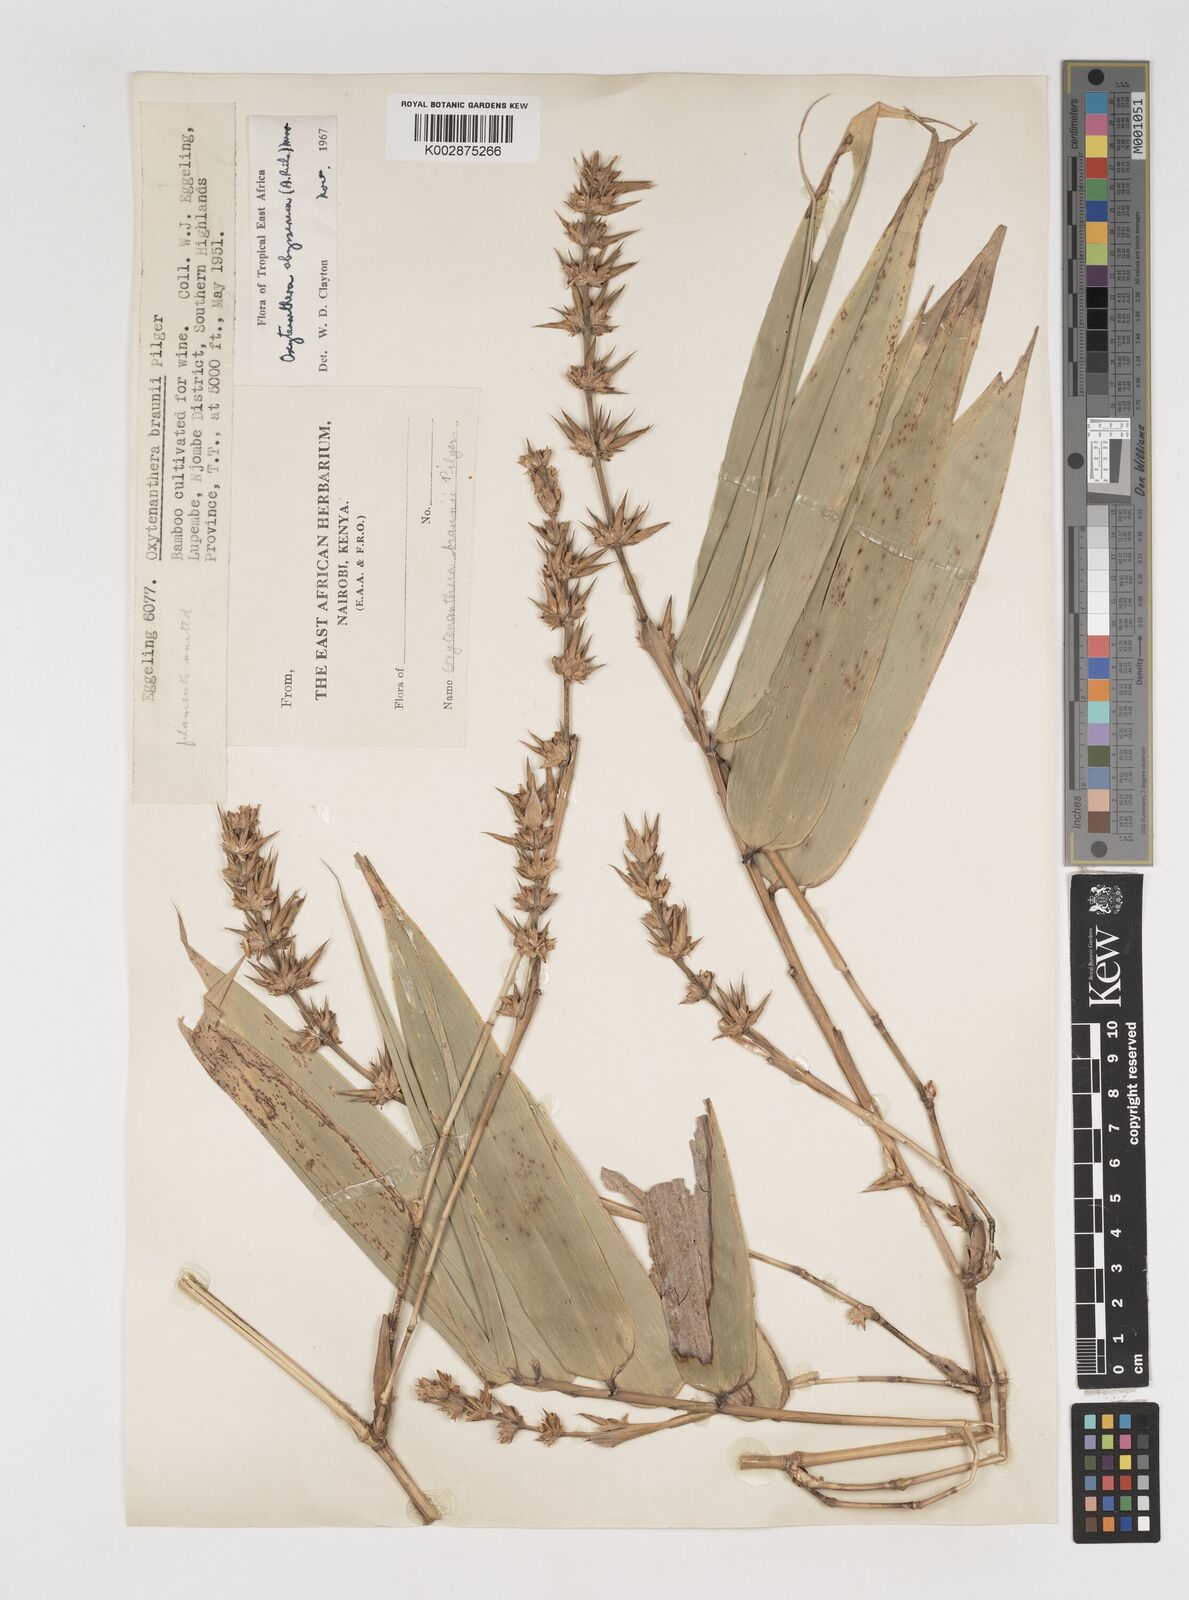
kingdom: Plantae
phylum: Tracheophyta
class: Liliopsida
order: Poales
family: Poaceae
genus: Oxytenanthera
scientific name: Oxytenanthera
